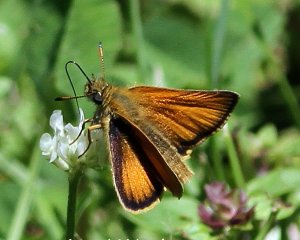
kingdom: Animalia
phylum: Arthropoda
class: Insecta
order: Lepidoptera
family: Hesperiidae
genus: Thymelicus
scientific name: Thymelicus lineola
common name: European Skipper
